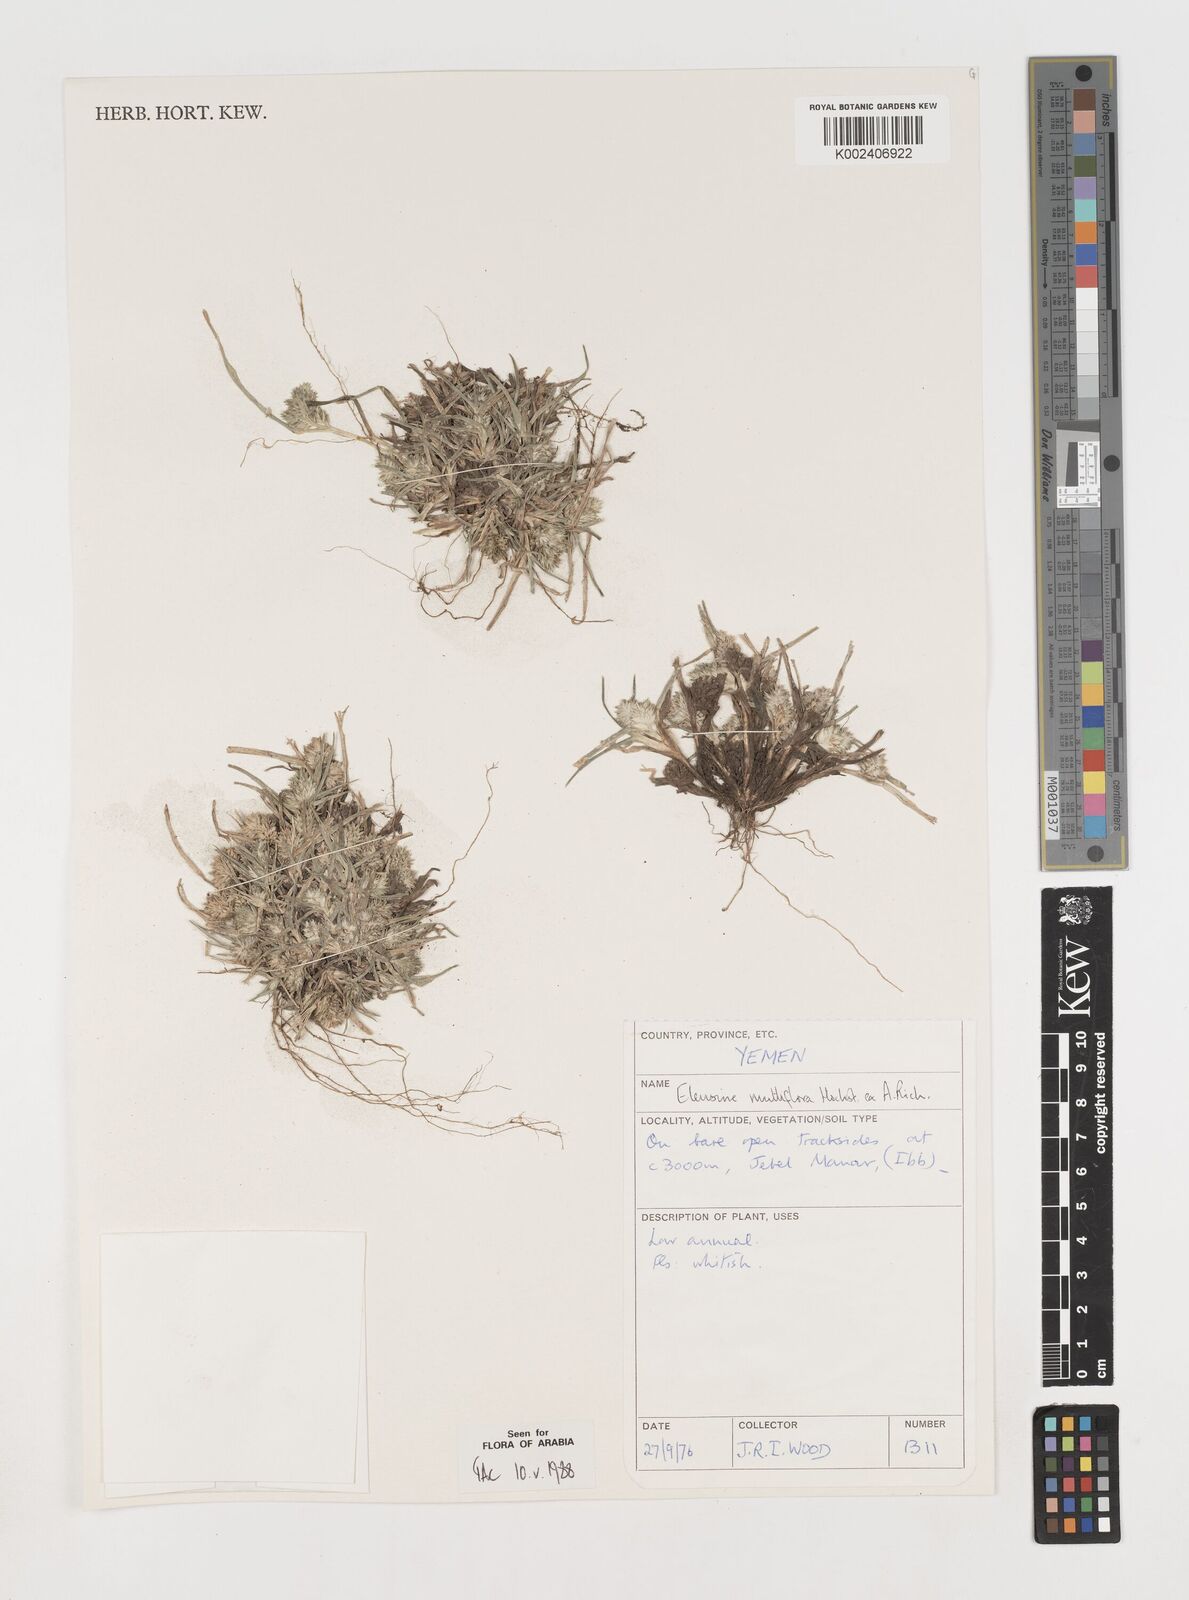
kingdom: Plantae
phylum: Tracheophyta
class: Liliopsida
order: Poales
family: Poaceae
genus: Eleusine
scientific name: Eleusine multiflora
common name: Fat-spiked yard-grass
